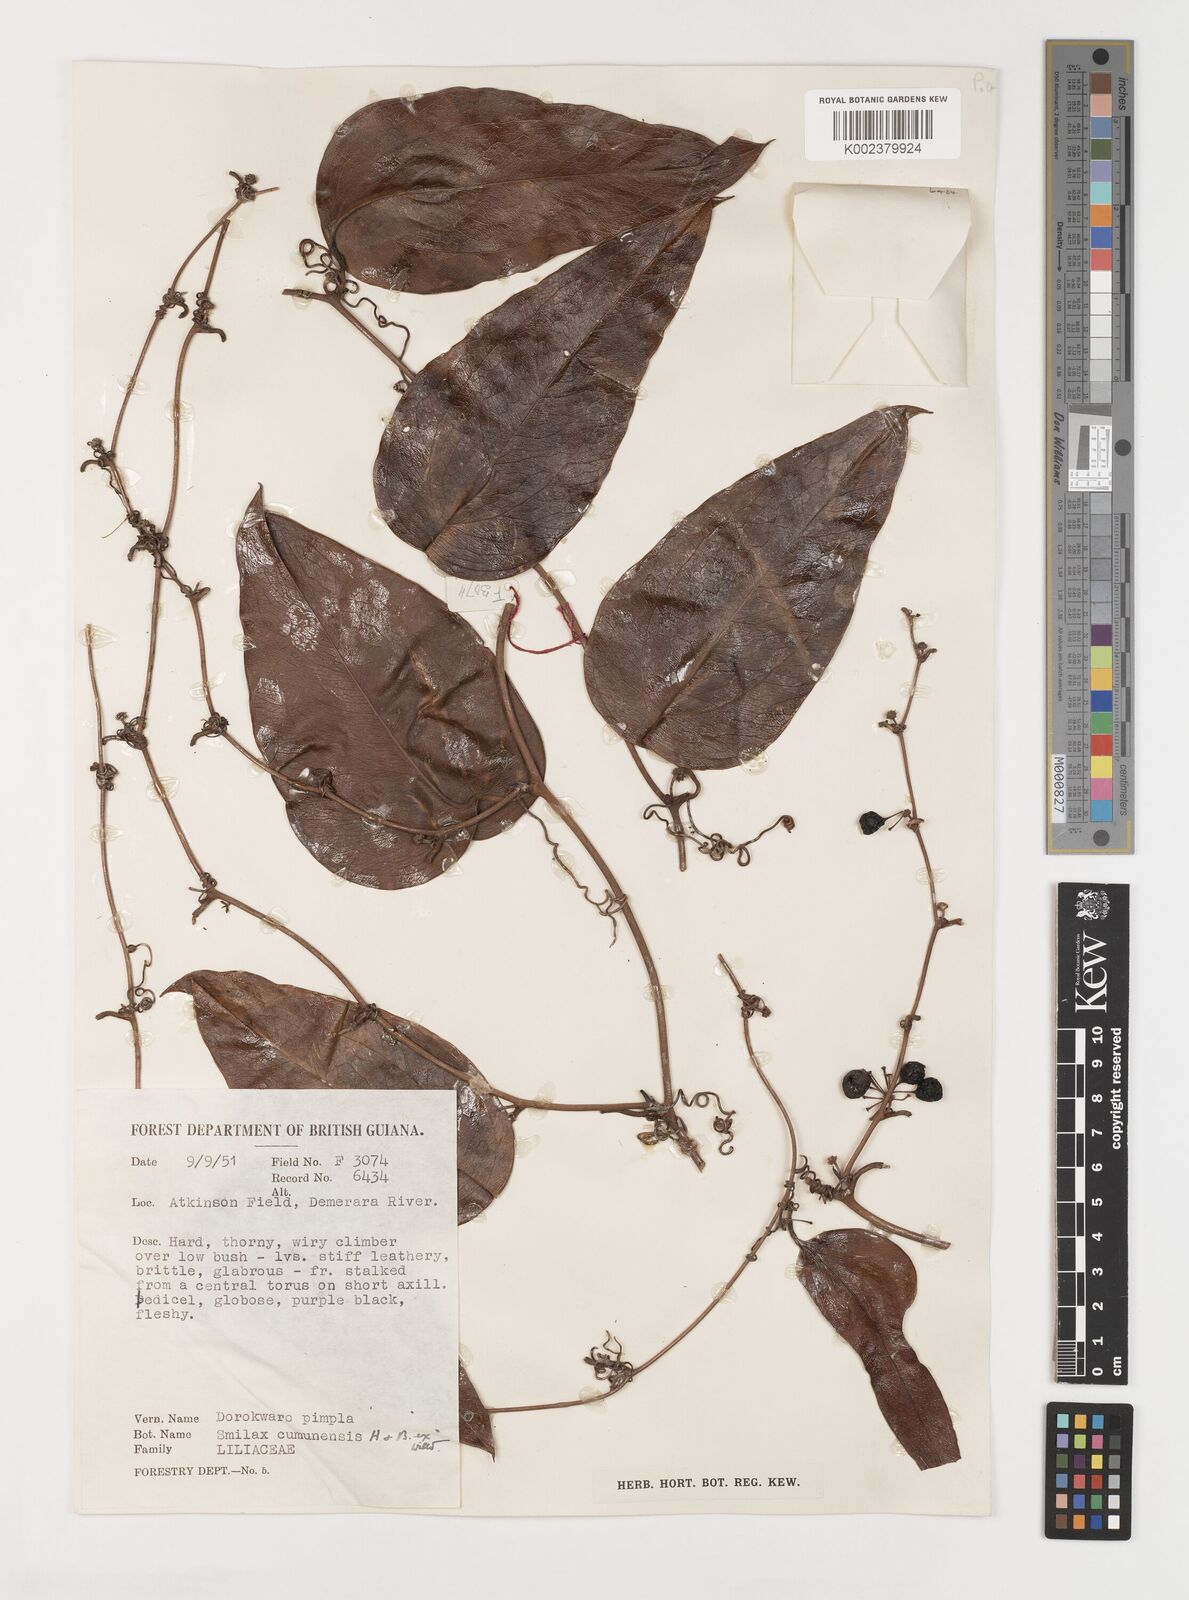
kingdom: Plantae
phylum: Tracheophyta
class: Liliopsida
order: Liliales
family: Smilacaceae
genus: Smilax
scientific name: Smilax oblongata
